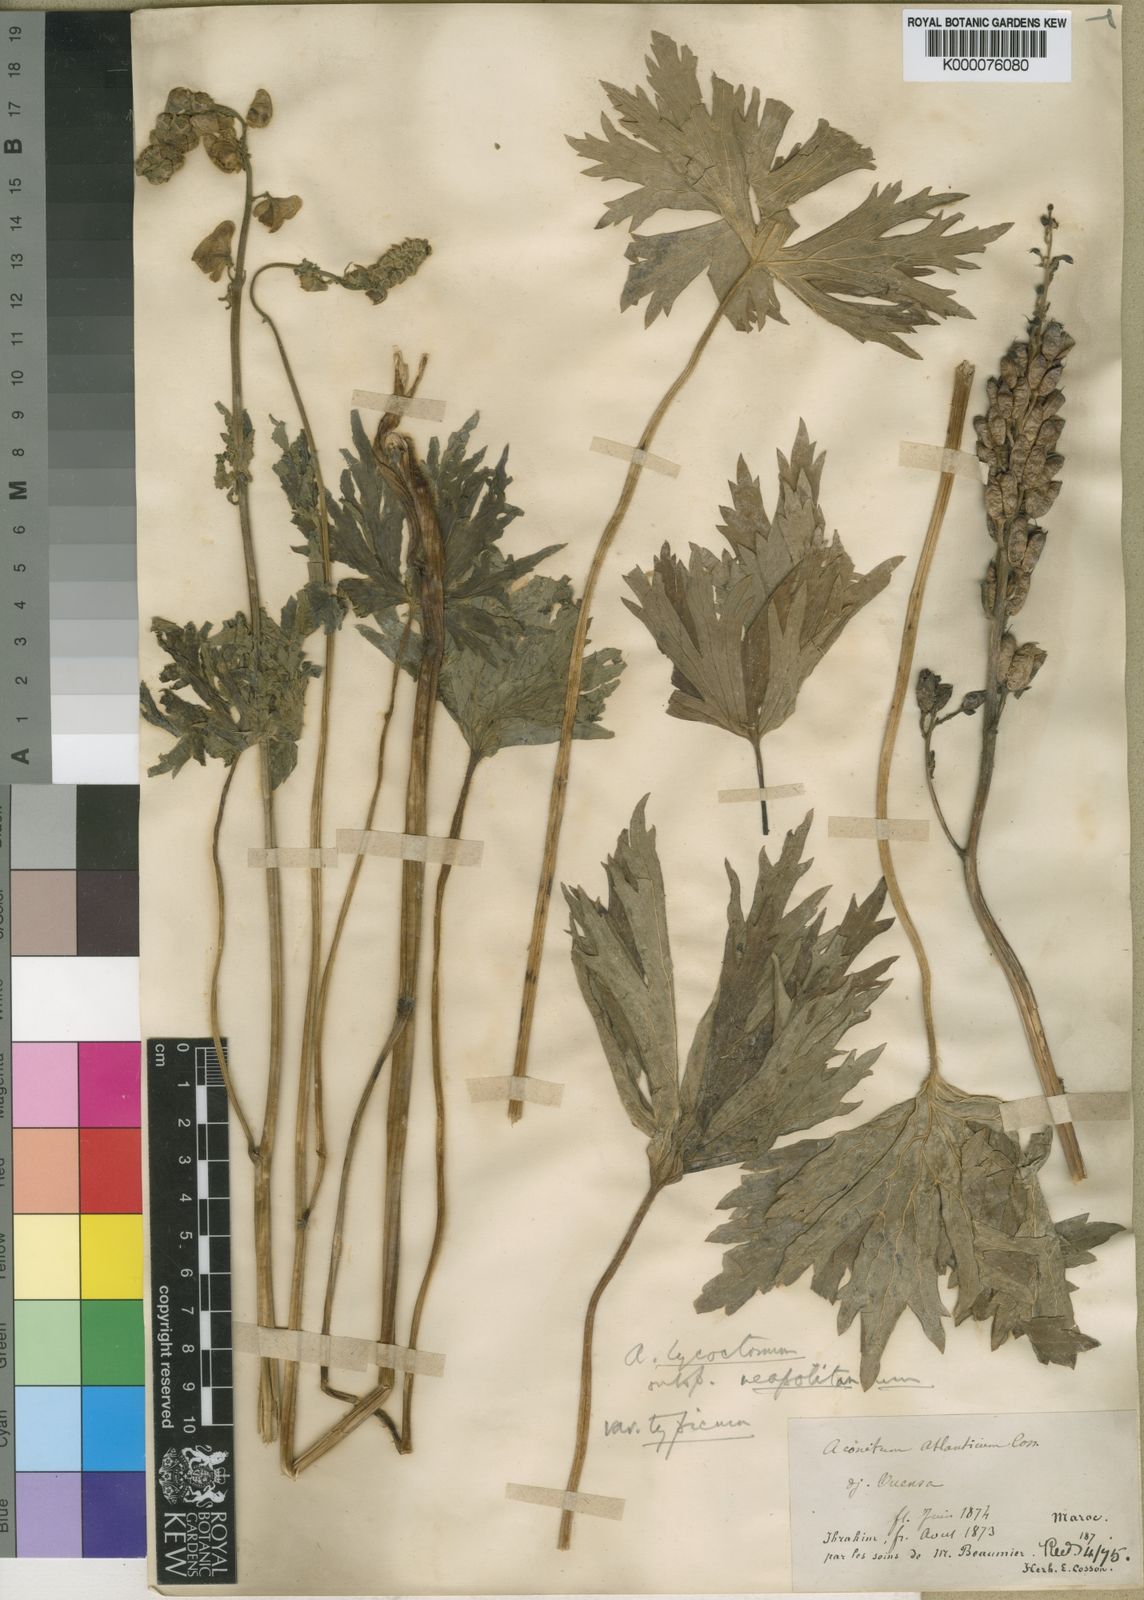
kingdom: Plantae
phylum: Tracheophyta
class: Magnoliopsida
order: Ranunculales
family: Ranunculaceae
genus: Aconitum
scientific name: Aconitum lycoctonum
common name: Wolf's-bane
